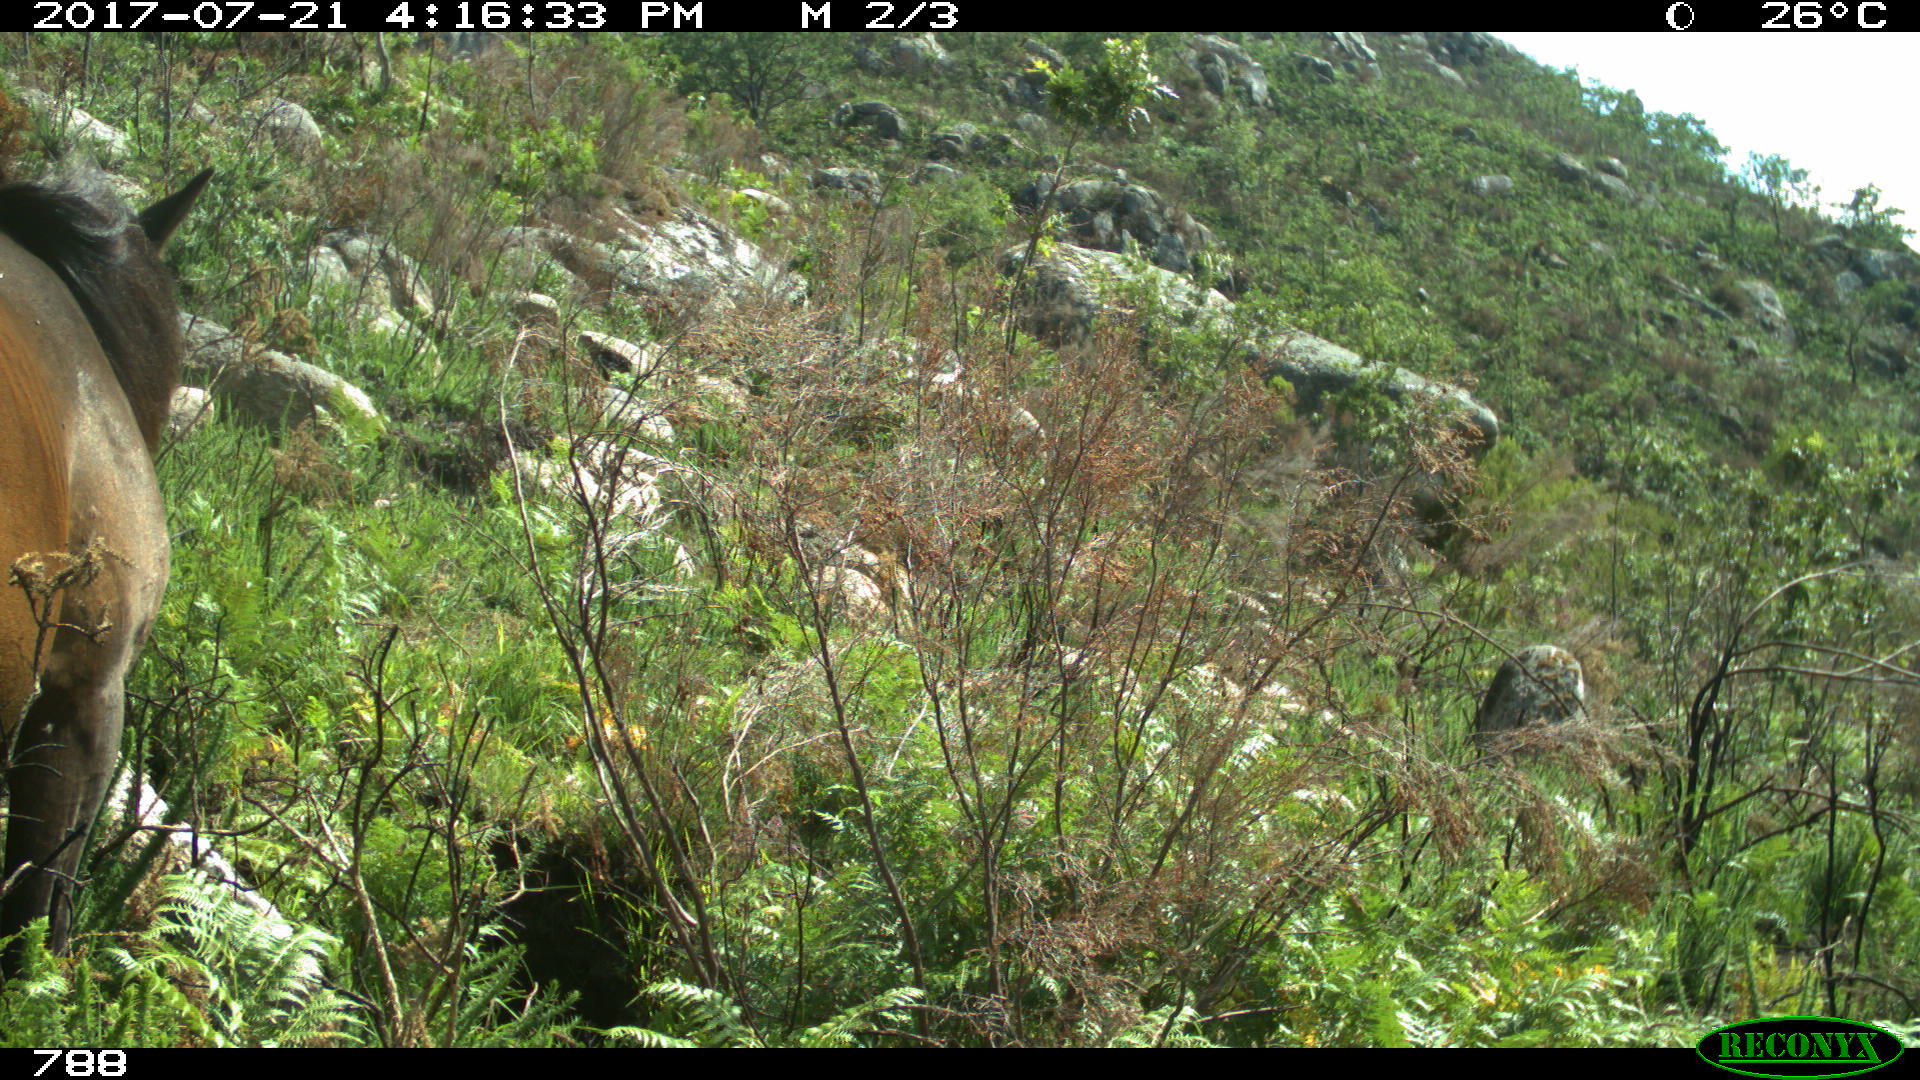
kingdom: Animalia
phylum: Chordata
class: Mammalia
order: Perissodactyla
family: Equidae
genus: Equus
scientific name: Equus caballus
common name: Horse
